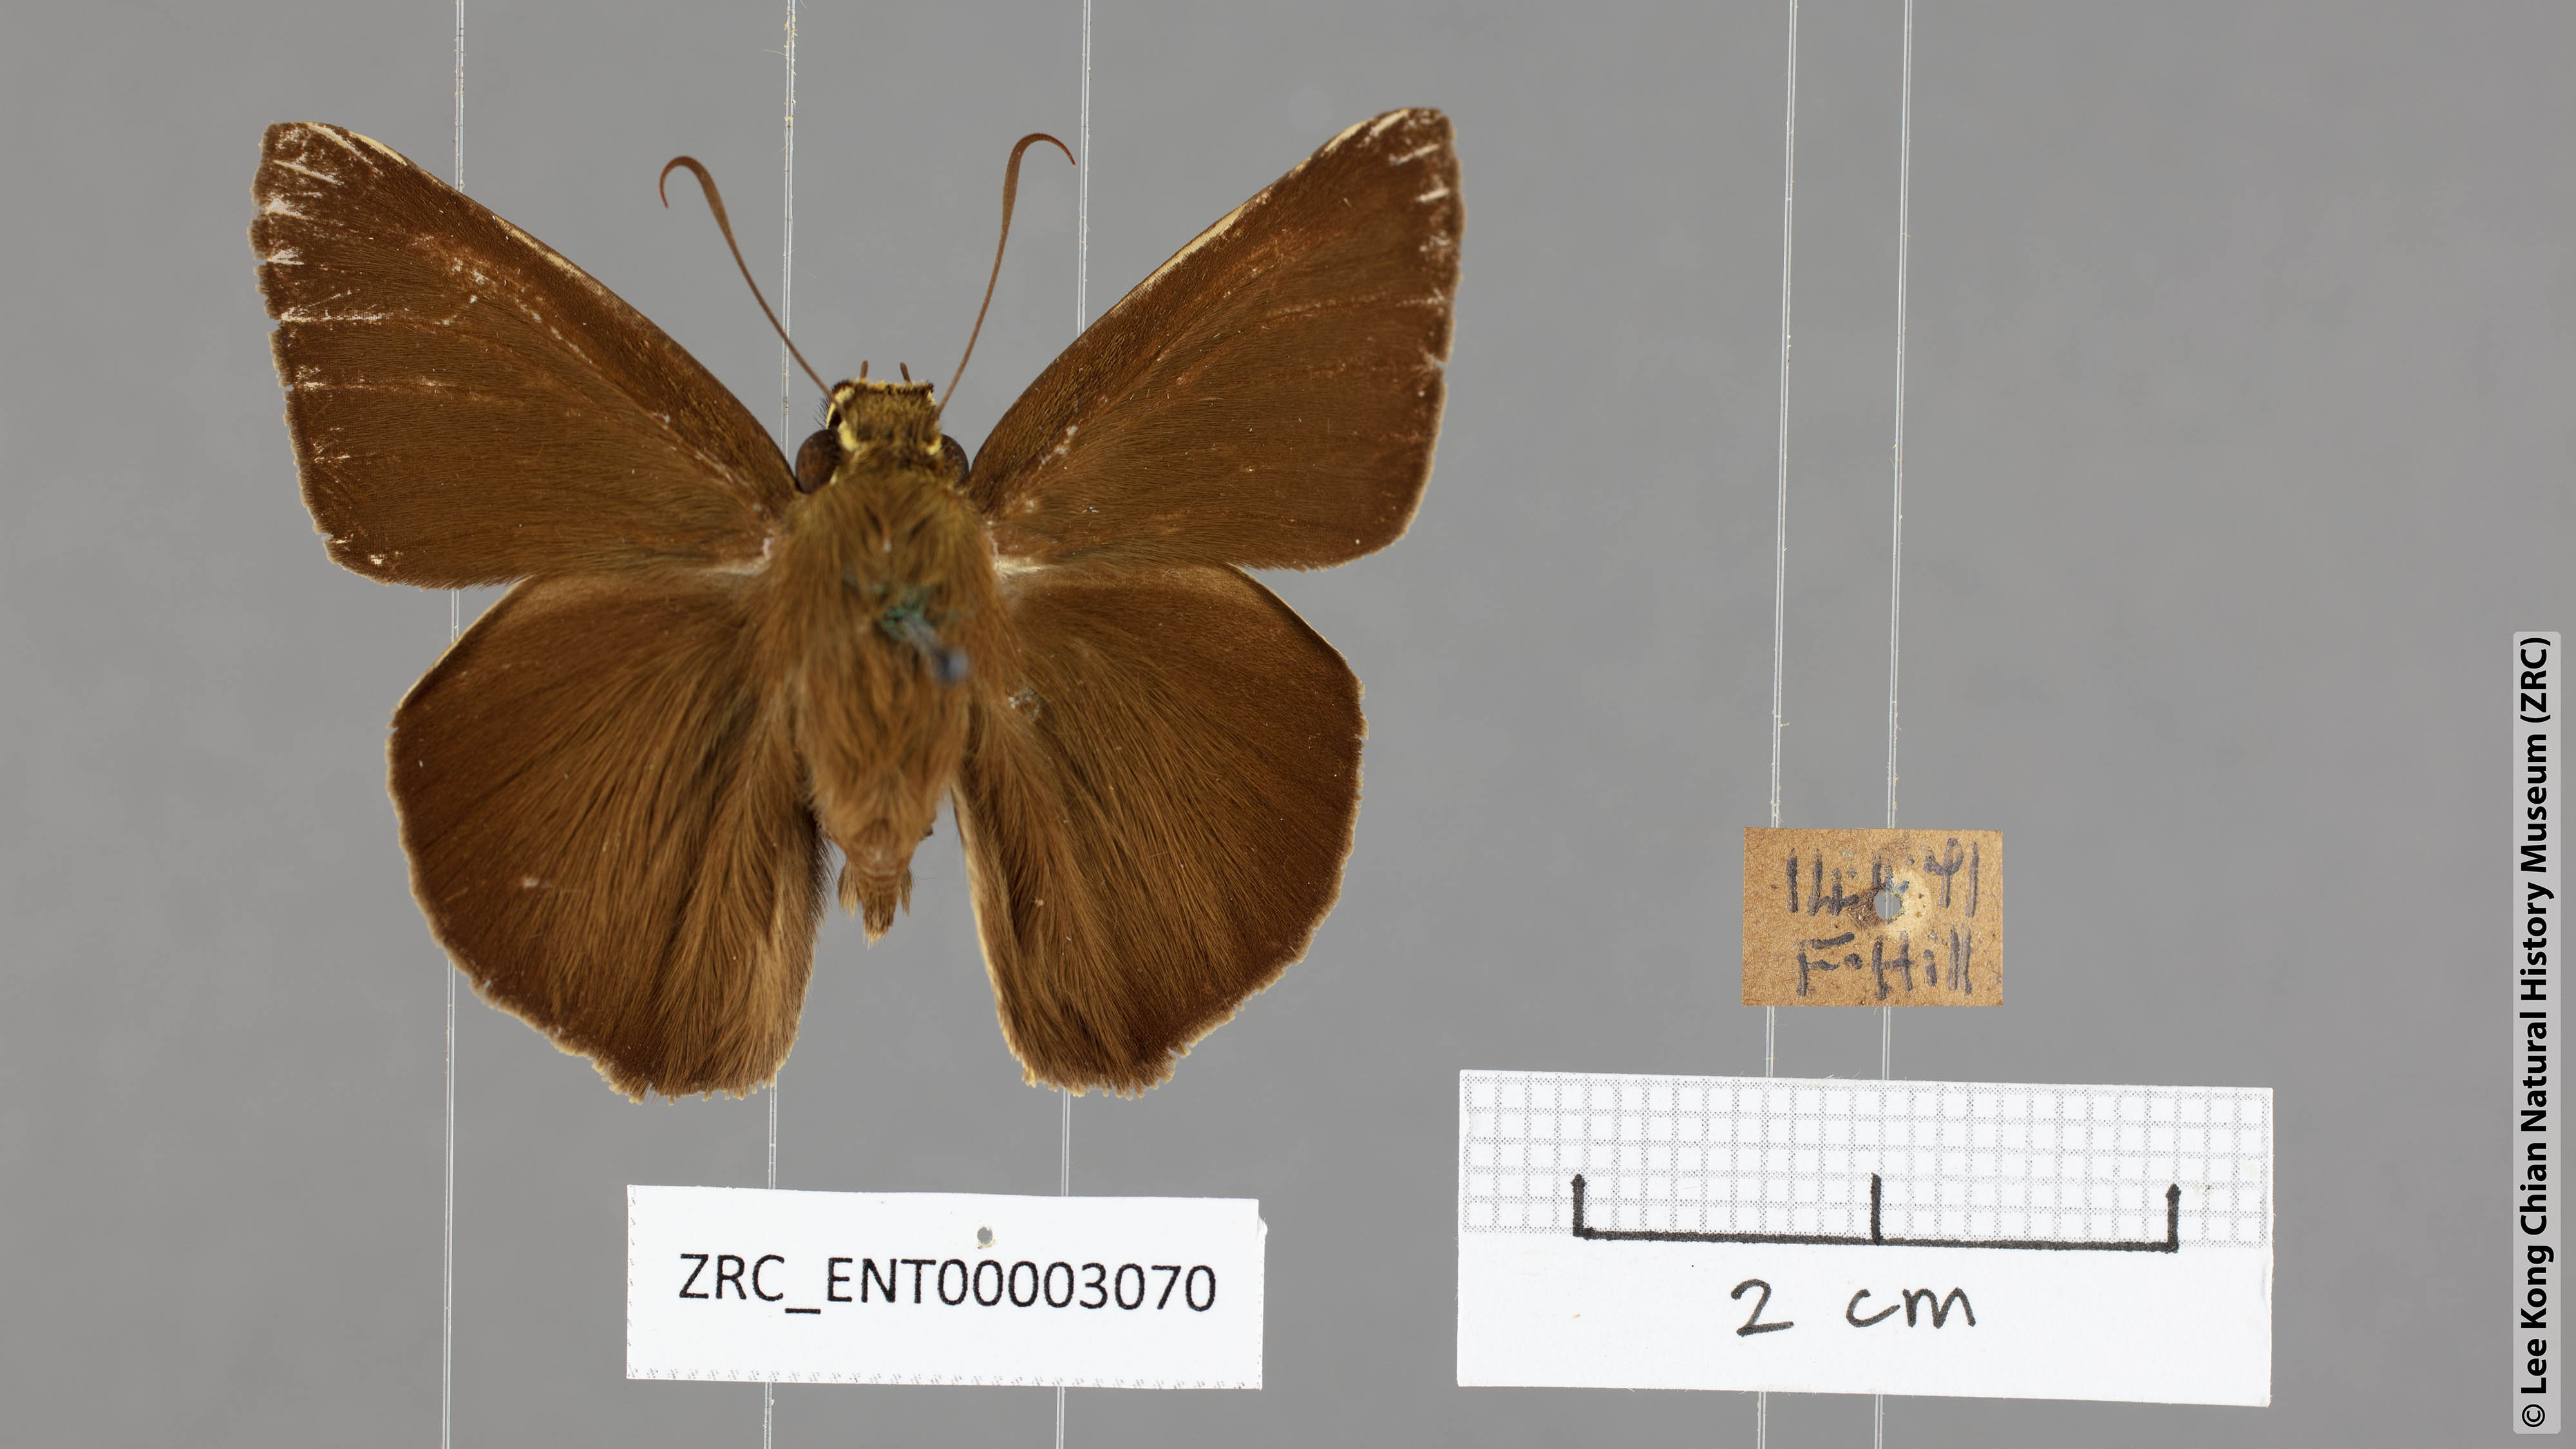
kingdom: Animalia
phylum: Arthropoda
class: Insecta
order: Lepidoptera
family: Hesperiidae
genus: Hasora
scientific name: Hasora salanga
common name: Black-tailed awl
